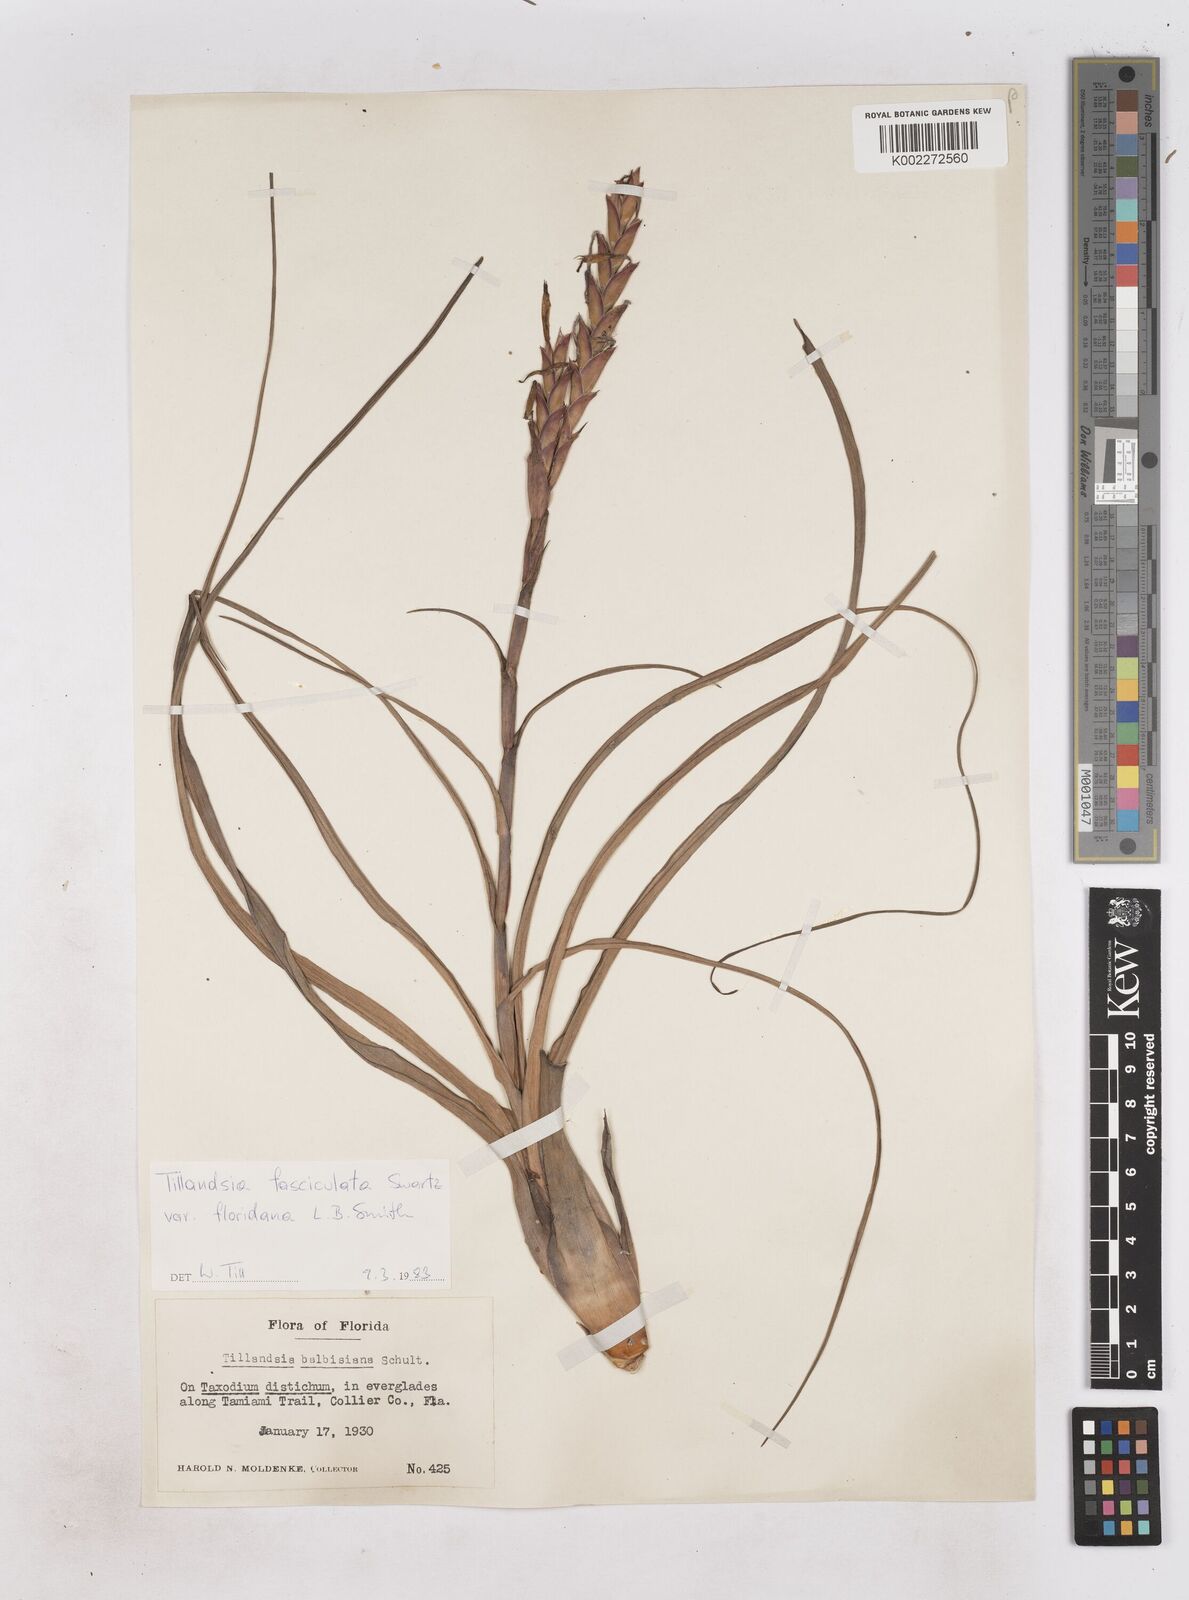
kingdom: Plantae
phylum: Tracheophyta
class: Liliopsida
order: Poales
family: Bromeliaceae
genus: Tillandsia
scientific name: Tillandsia floridana
